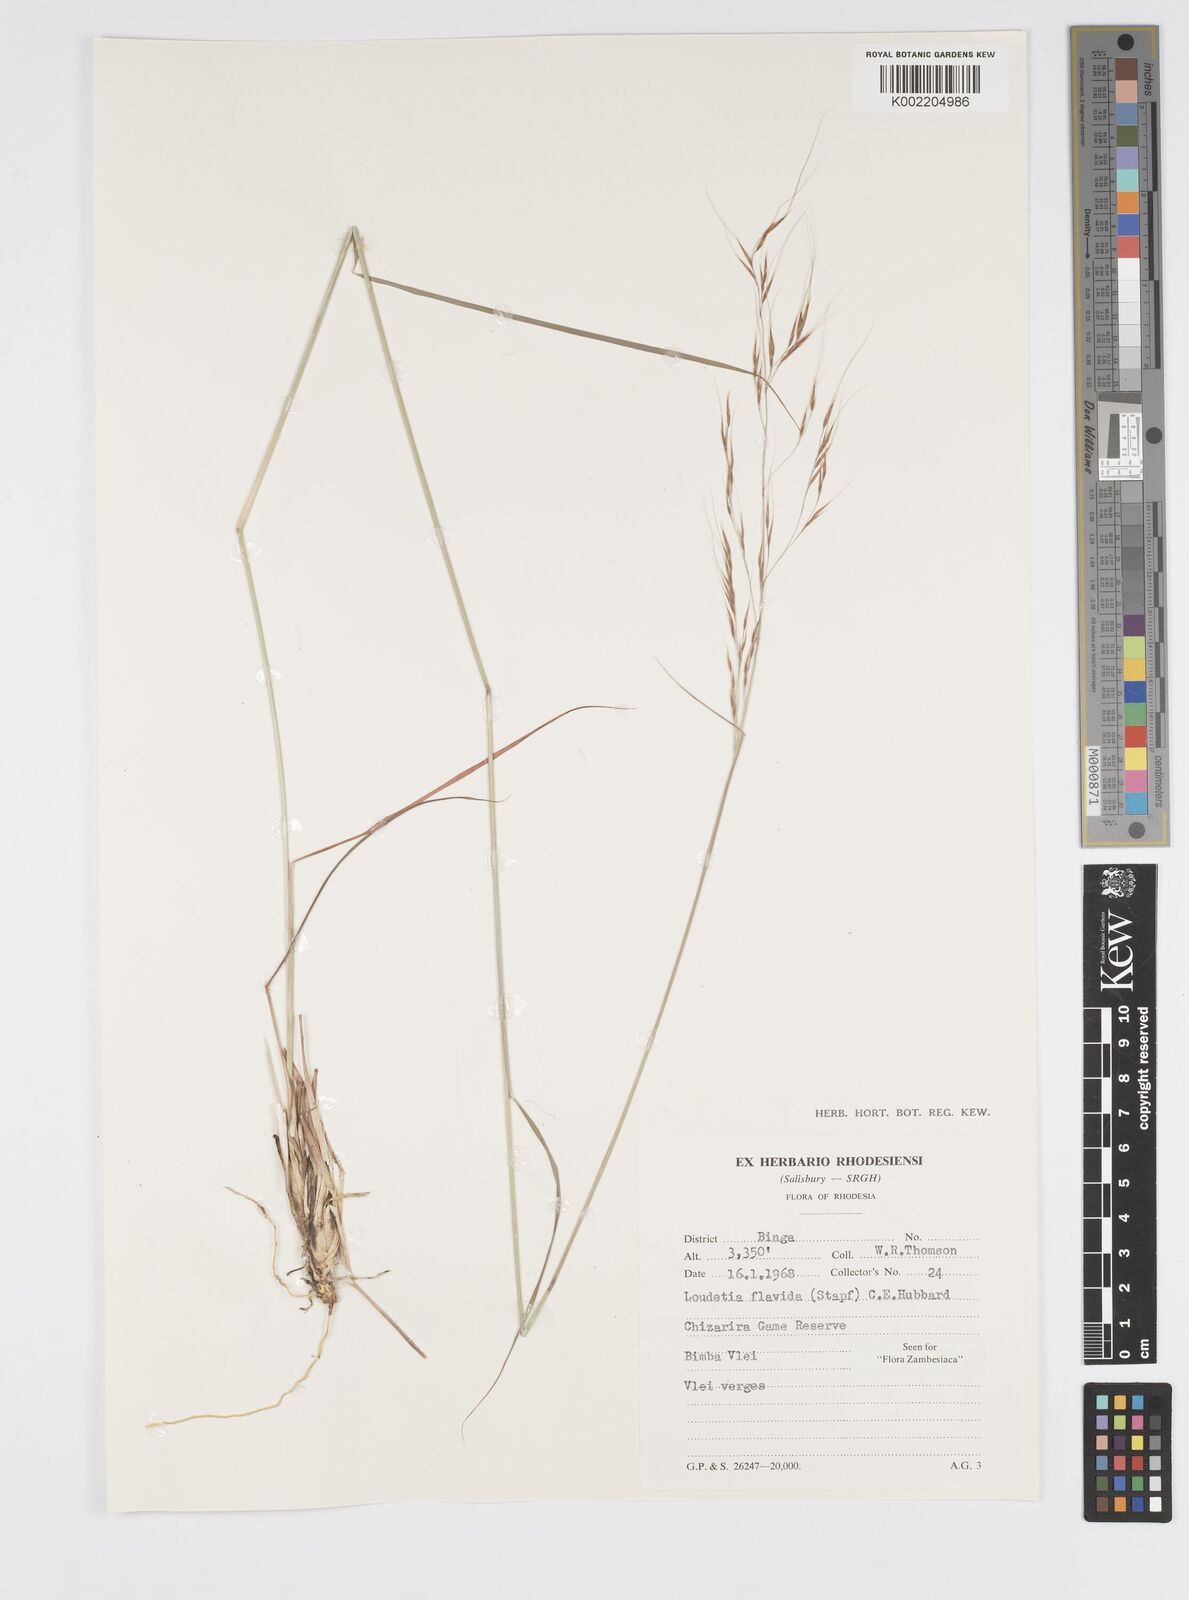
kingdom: Plantae
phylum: Tracheophyta
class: Liliopsida
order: Poales
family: Poaceae
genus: Loudetia
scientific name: Loudetia flavida
